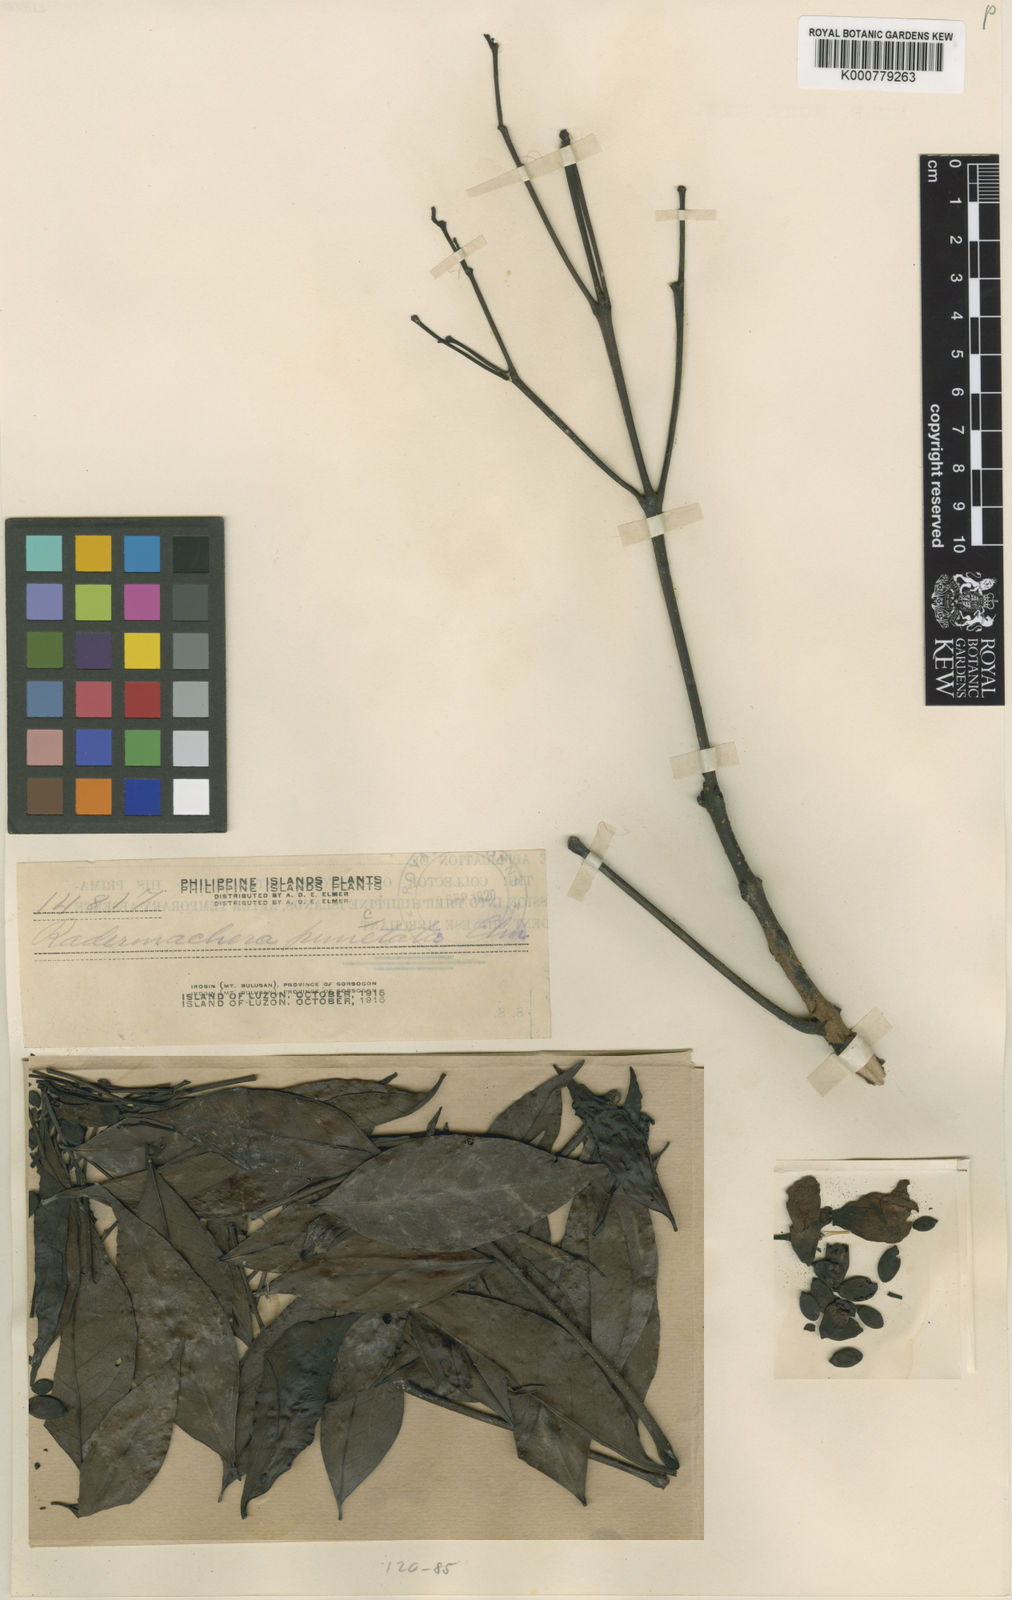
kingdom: Plantae
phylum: Tracheophyta
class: Magnoliopsida
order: Lamiales
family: Bignoniaceae
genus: Radermachera
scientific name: Radermachera pinnata
